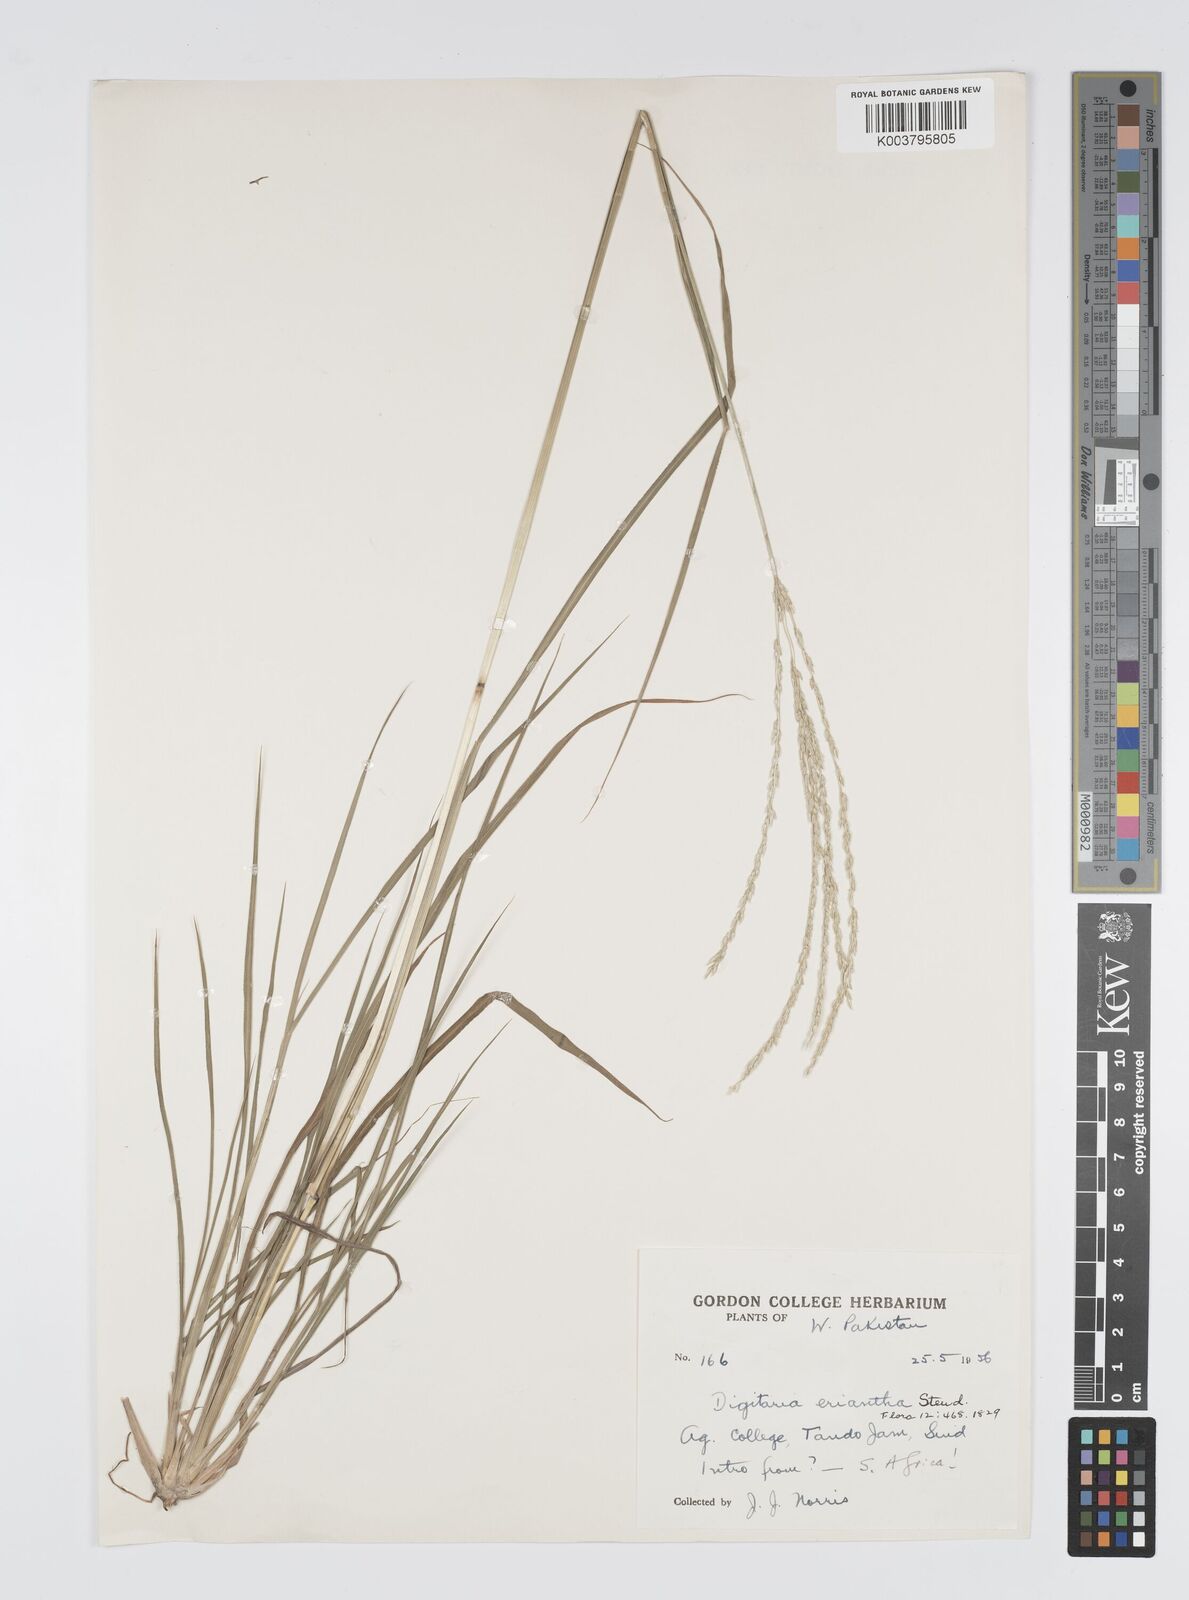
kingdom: Plantae
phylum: Tracheophyta
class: Liliopsida
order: Poales
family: Poaceae
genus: Digitaria
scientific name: Digitaria eriantha
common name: Digitgrass
